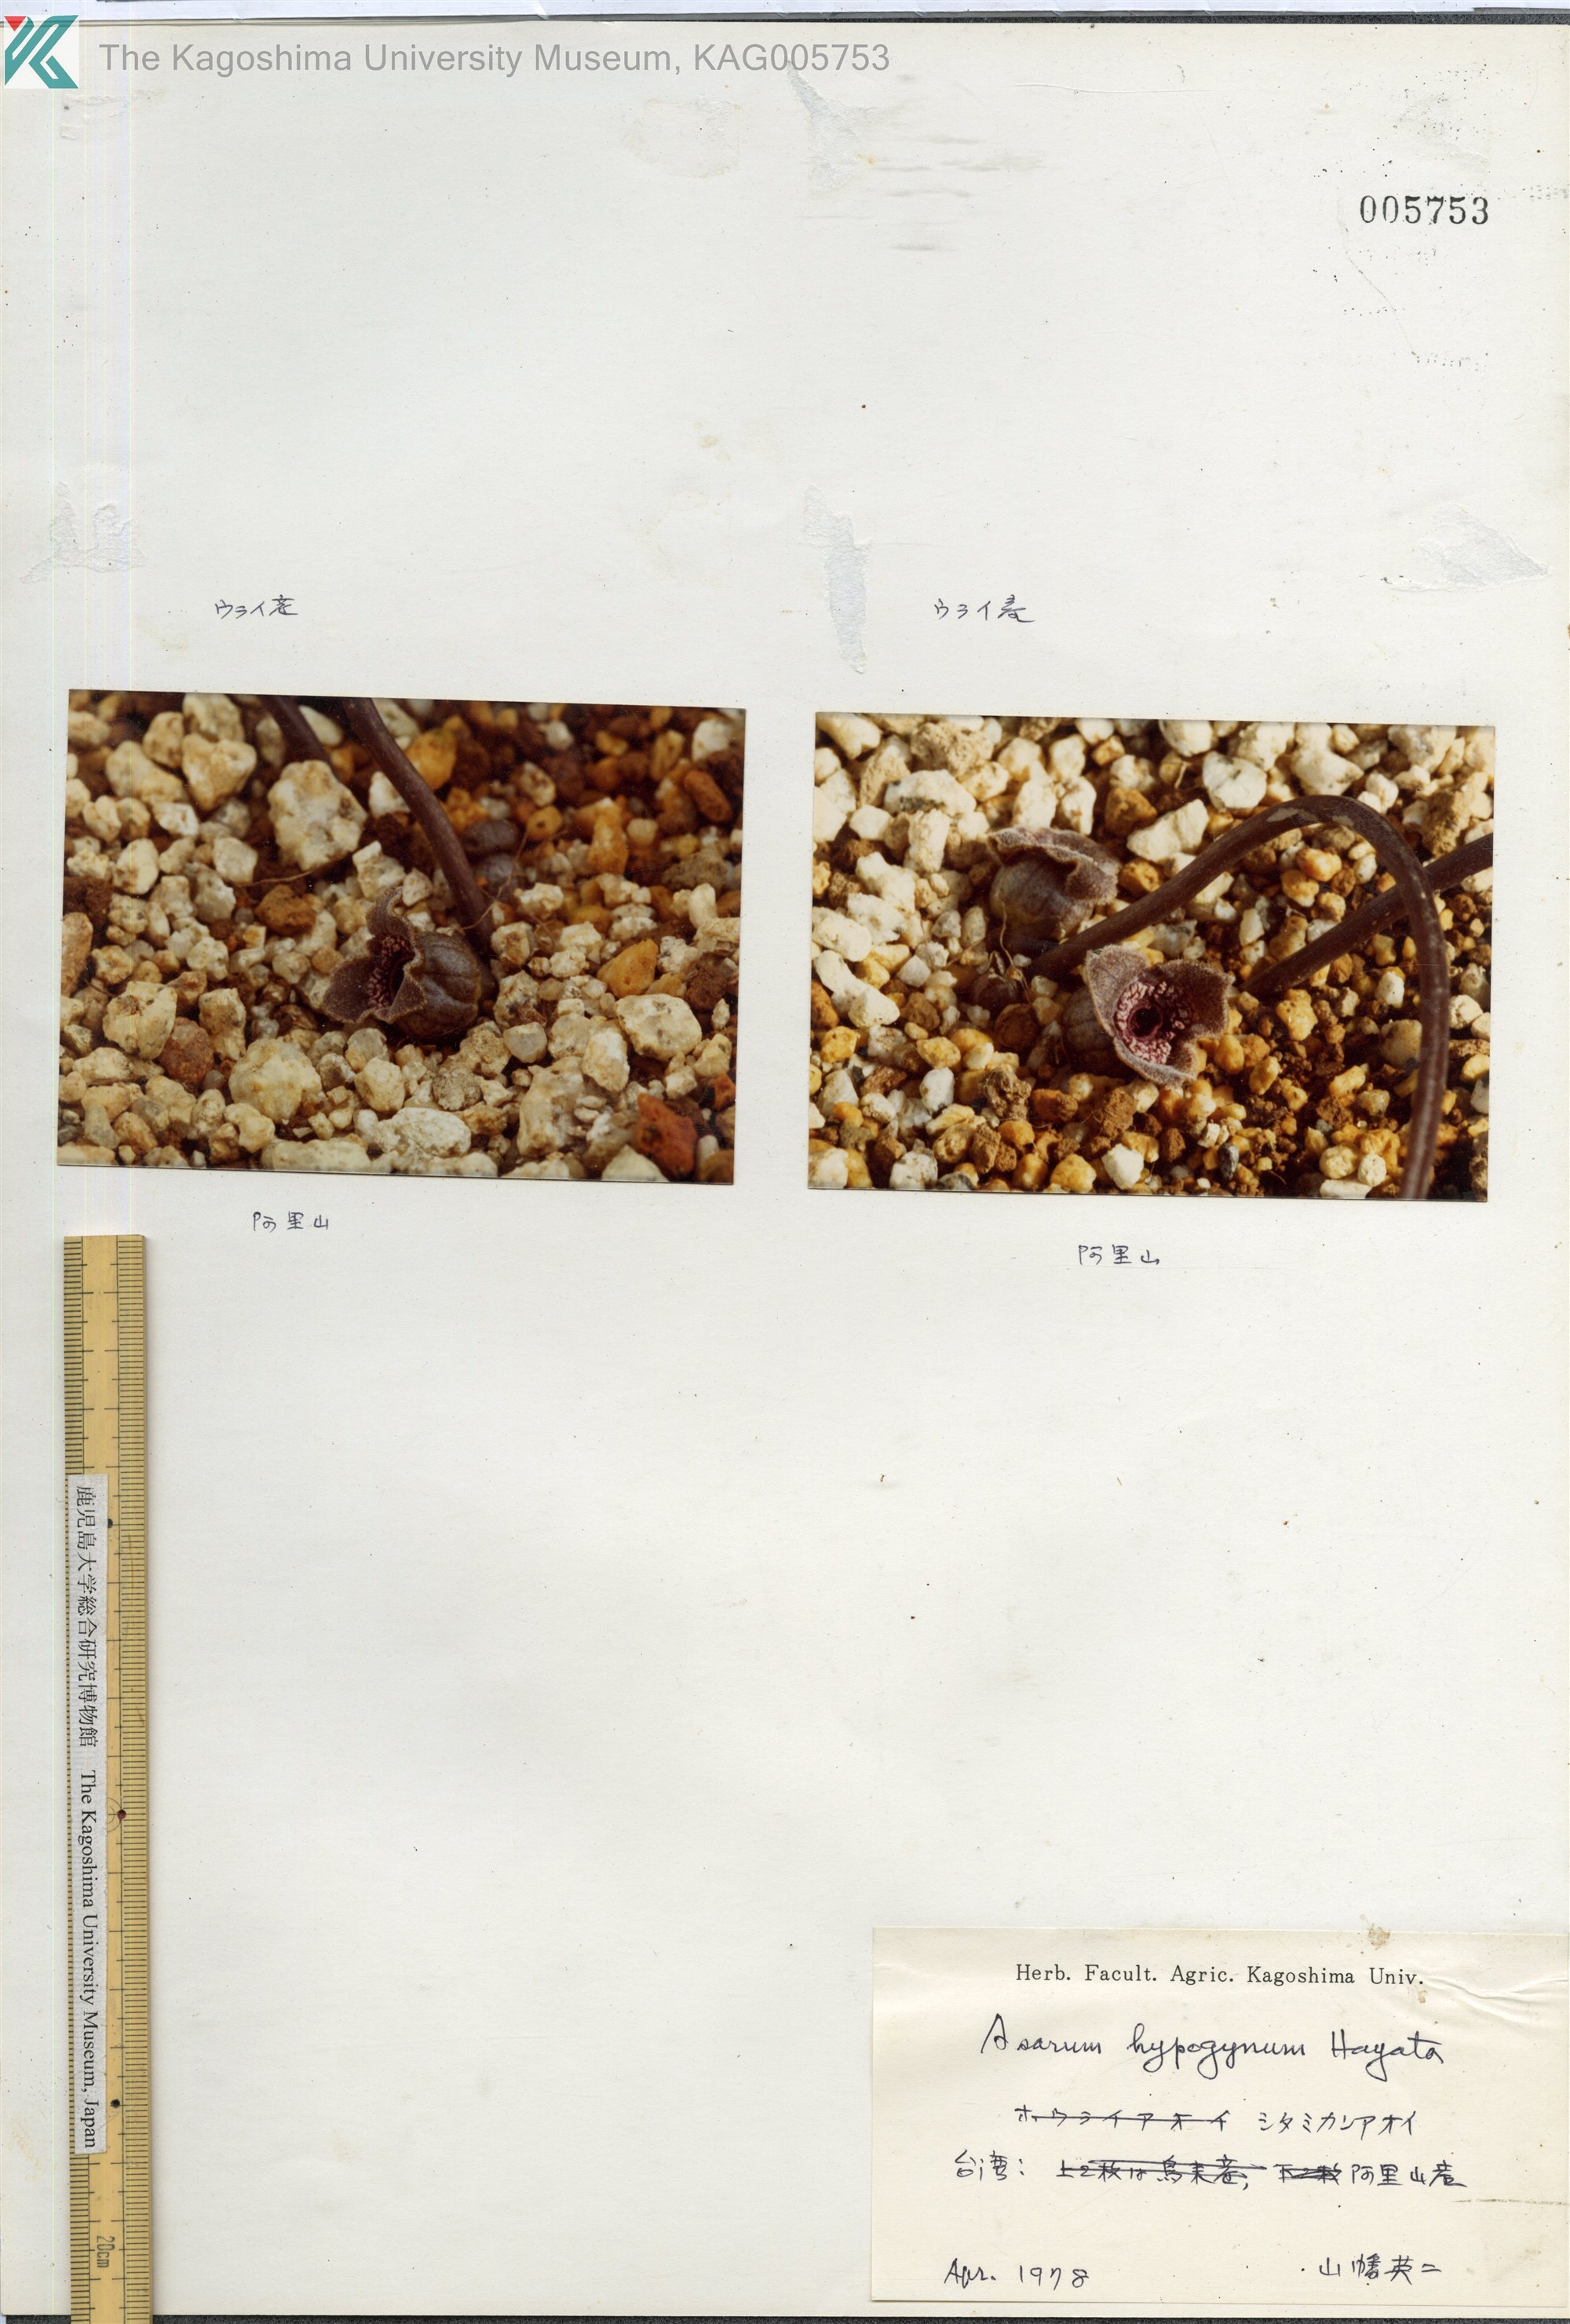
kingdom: Plantae
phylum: Tracheophyta
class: Magnoliopsida
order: Piperales
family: Aristolochiaceae
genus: Asarum
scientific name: Asarum
